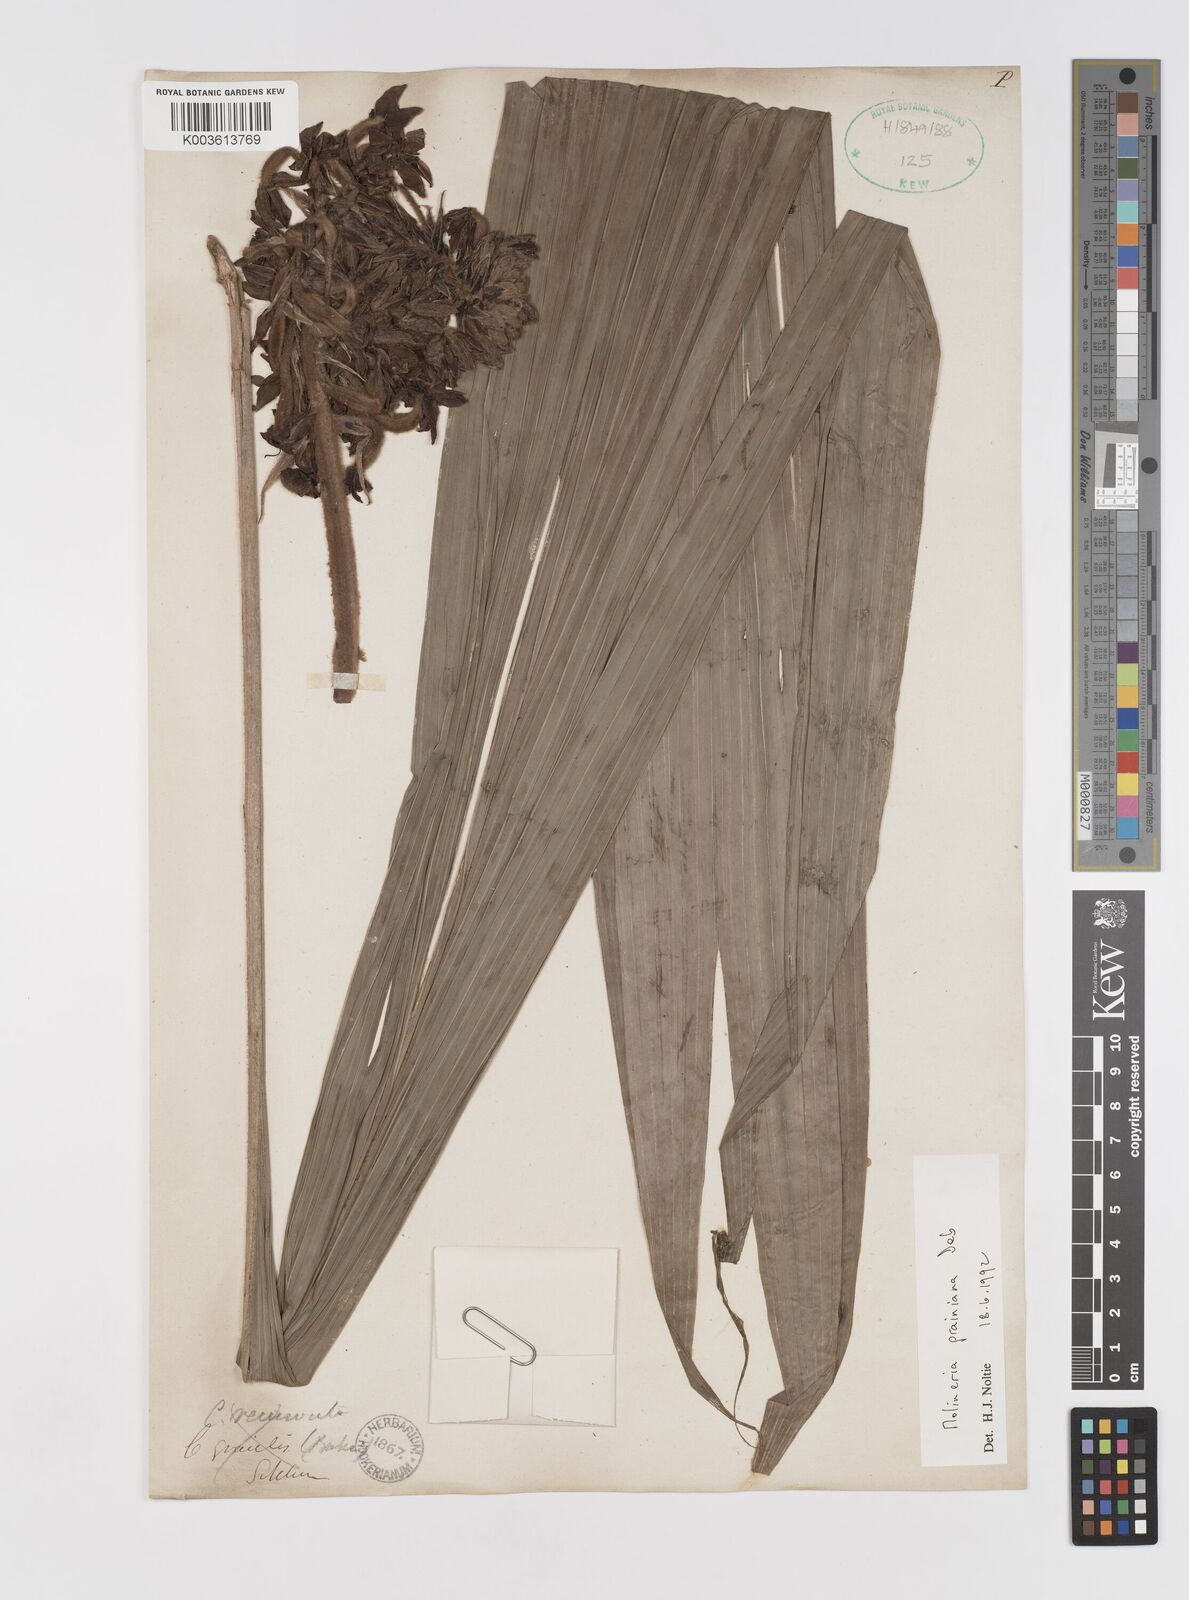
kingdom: Plantae
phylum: Tracheophyta
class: Liliopsida
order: Asparagales
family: Hypoxidaceae
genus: Curculigo
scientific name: Curculigo prainiana
